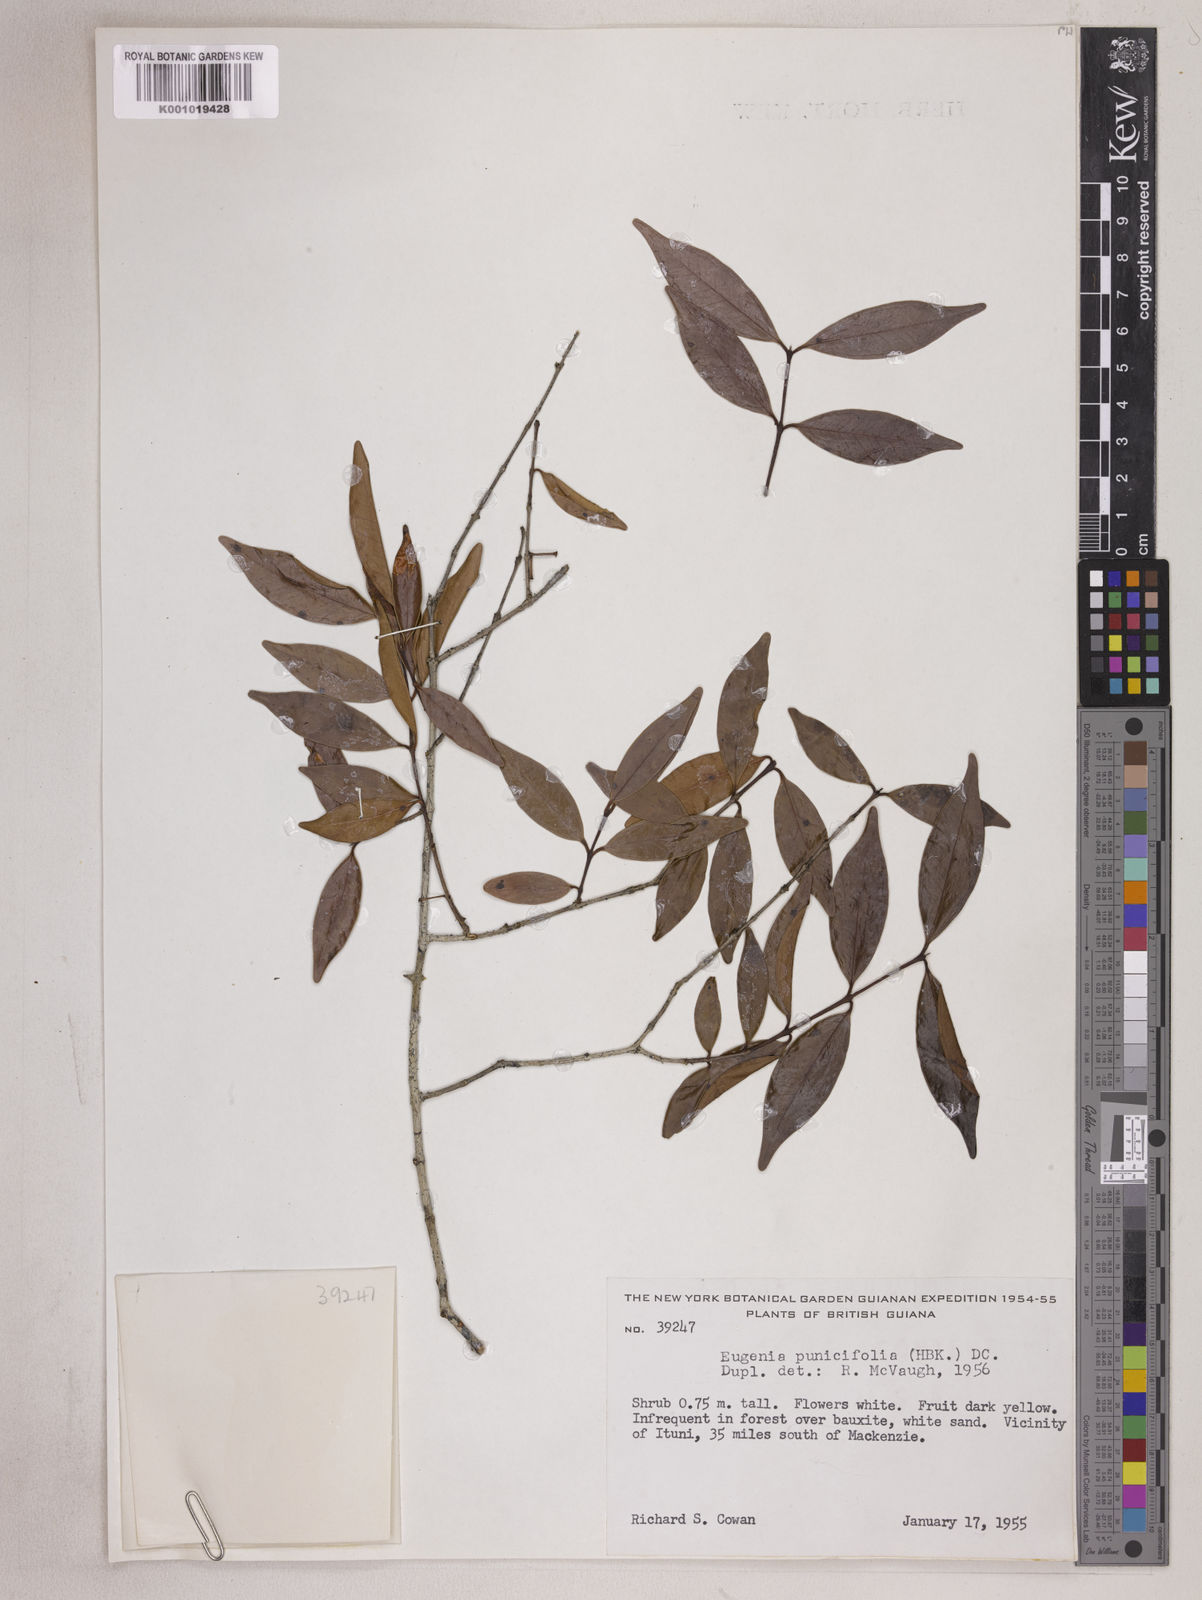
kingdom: Plantae
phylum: Tracheophyta
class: Magnoliopsida
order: Myrtales
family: Myrtaceae
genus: Eugenia
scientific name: Eugenia punicifolia
